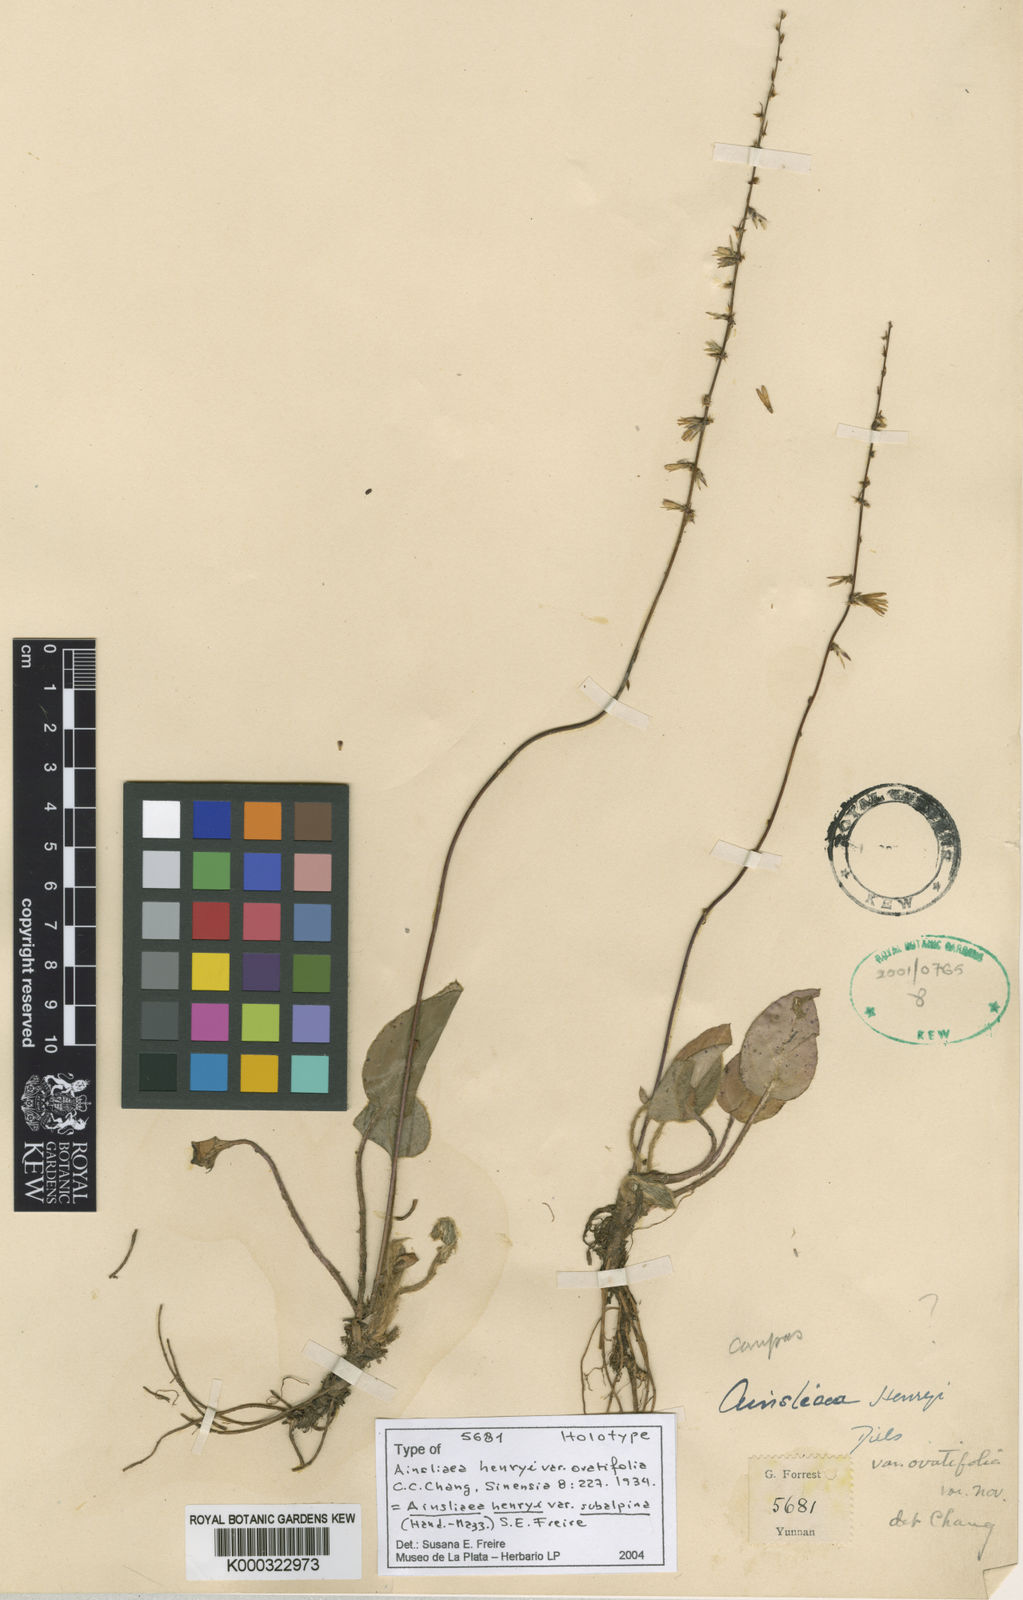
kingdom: Plantae
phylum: Tracheophyta
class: Magnoliopsida
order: Asterales
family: Asteraceae
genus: Ainsliaea
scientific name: Ainsliaea henryi
